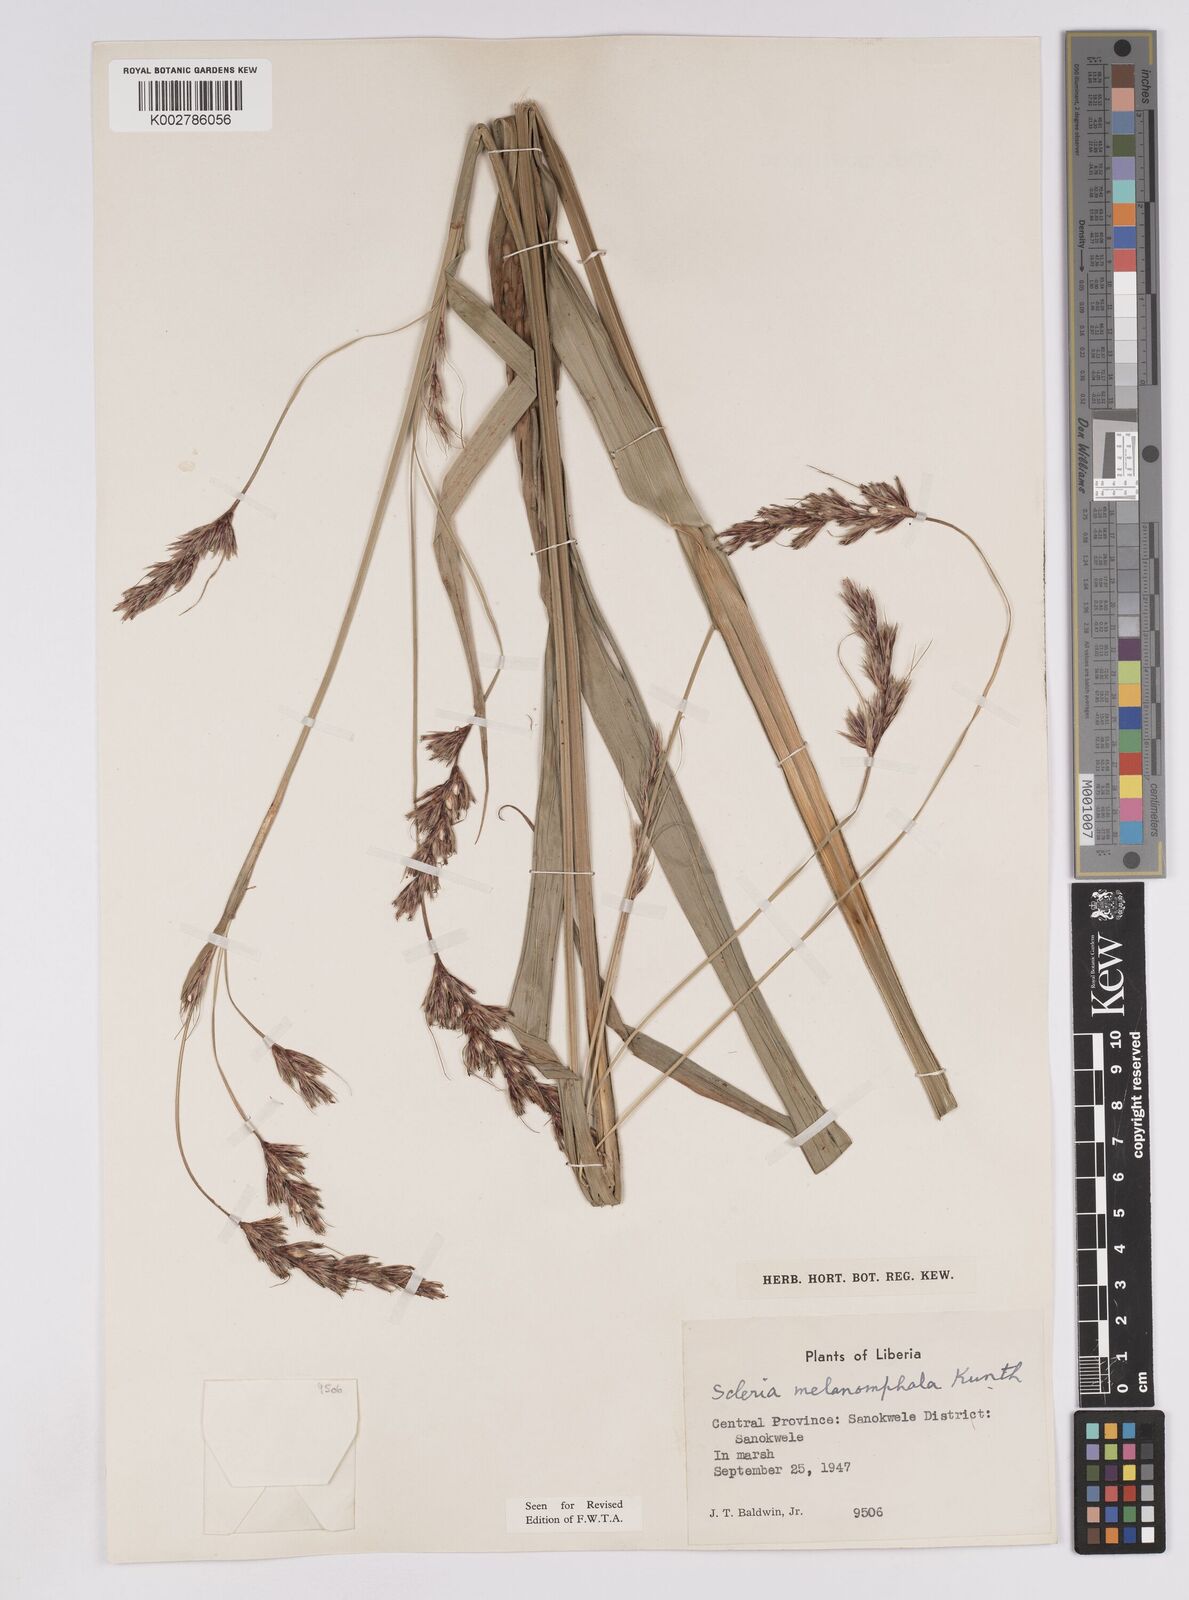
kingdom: Plantae
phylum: Tracheophyta
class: Liliopsida
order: Poales
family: Cyperaceae
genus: Scleria
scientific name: Scleria melanomphala
